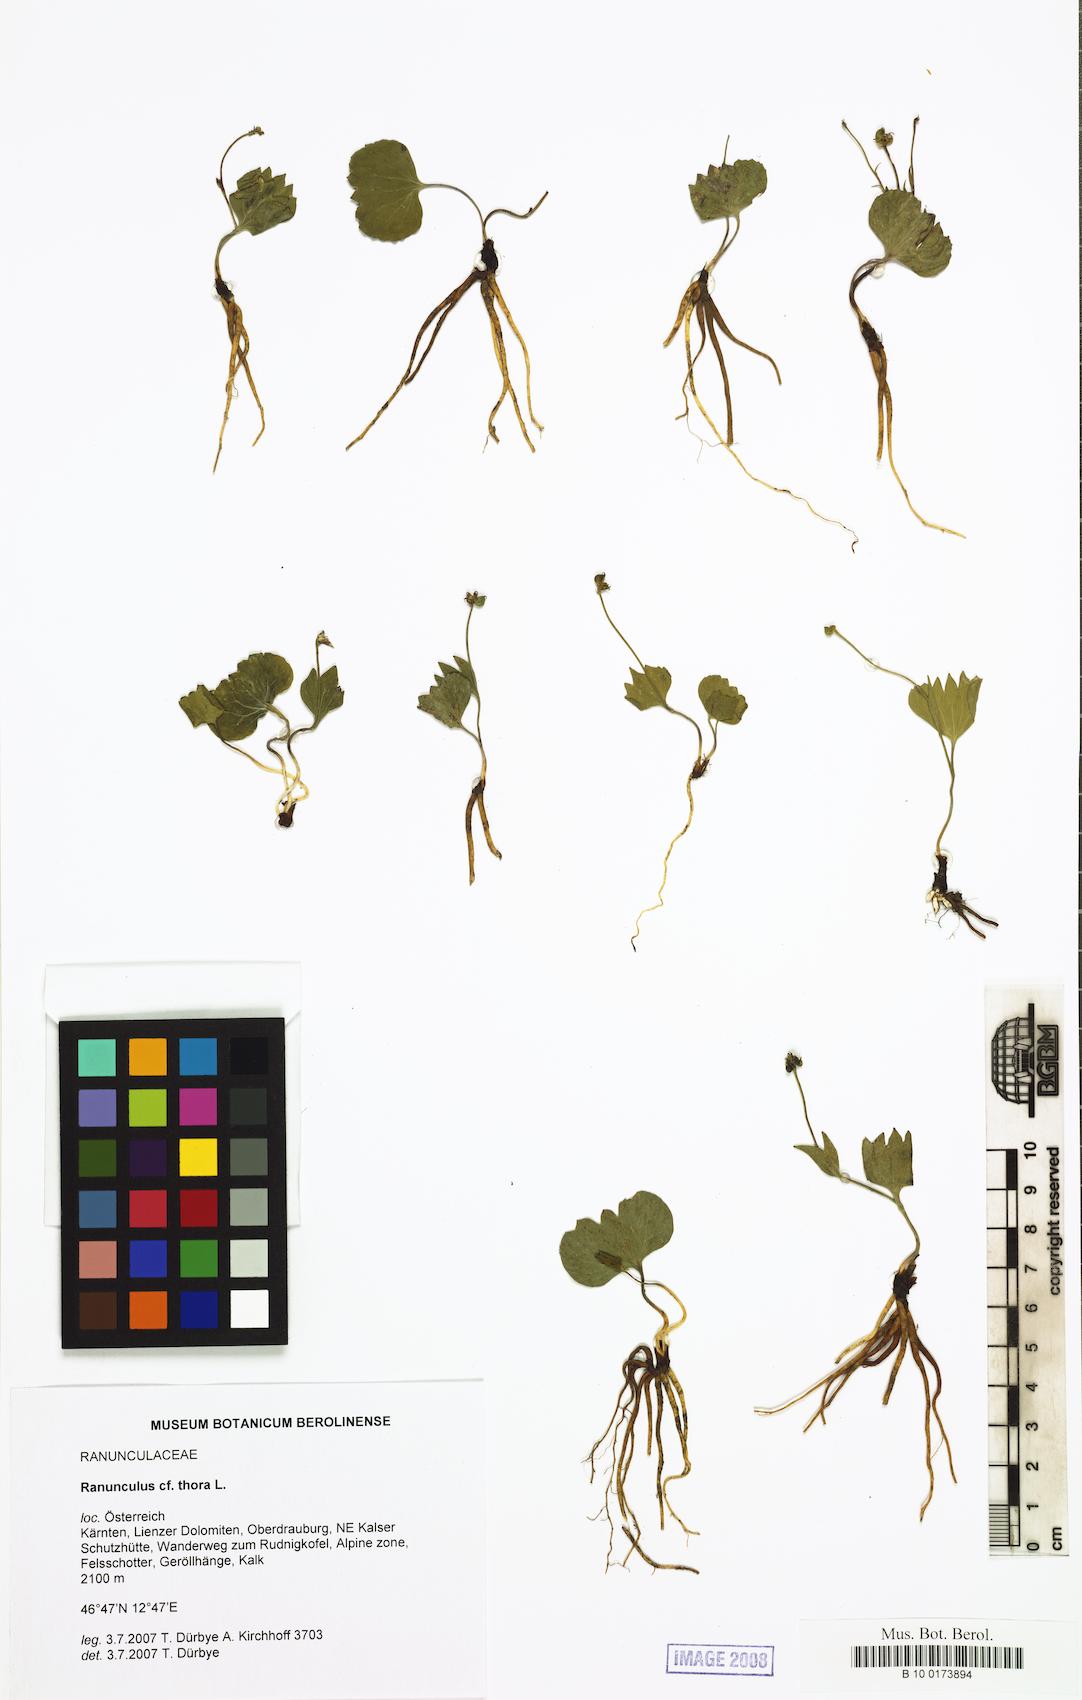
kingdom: Plantae
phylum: Tracheophyta
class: Magnoliopsida
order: Ranunculales
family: Ranunculaceae
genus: Ranunculus
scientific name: Ranunculus thora
